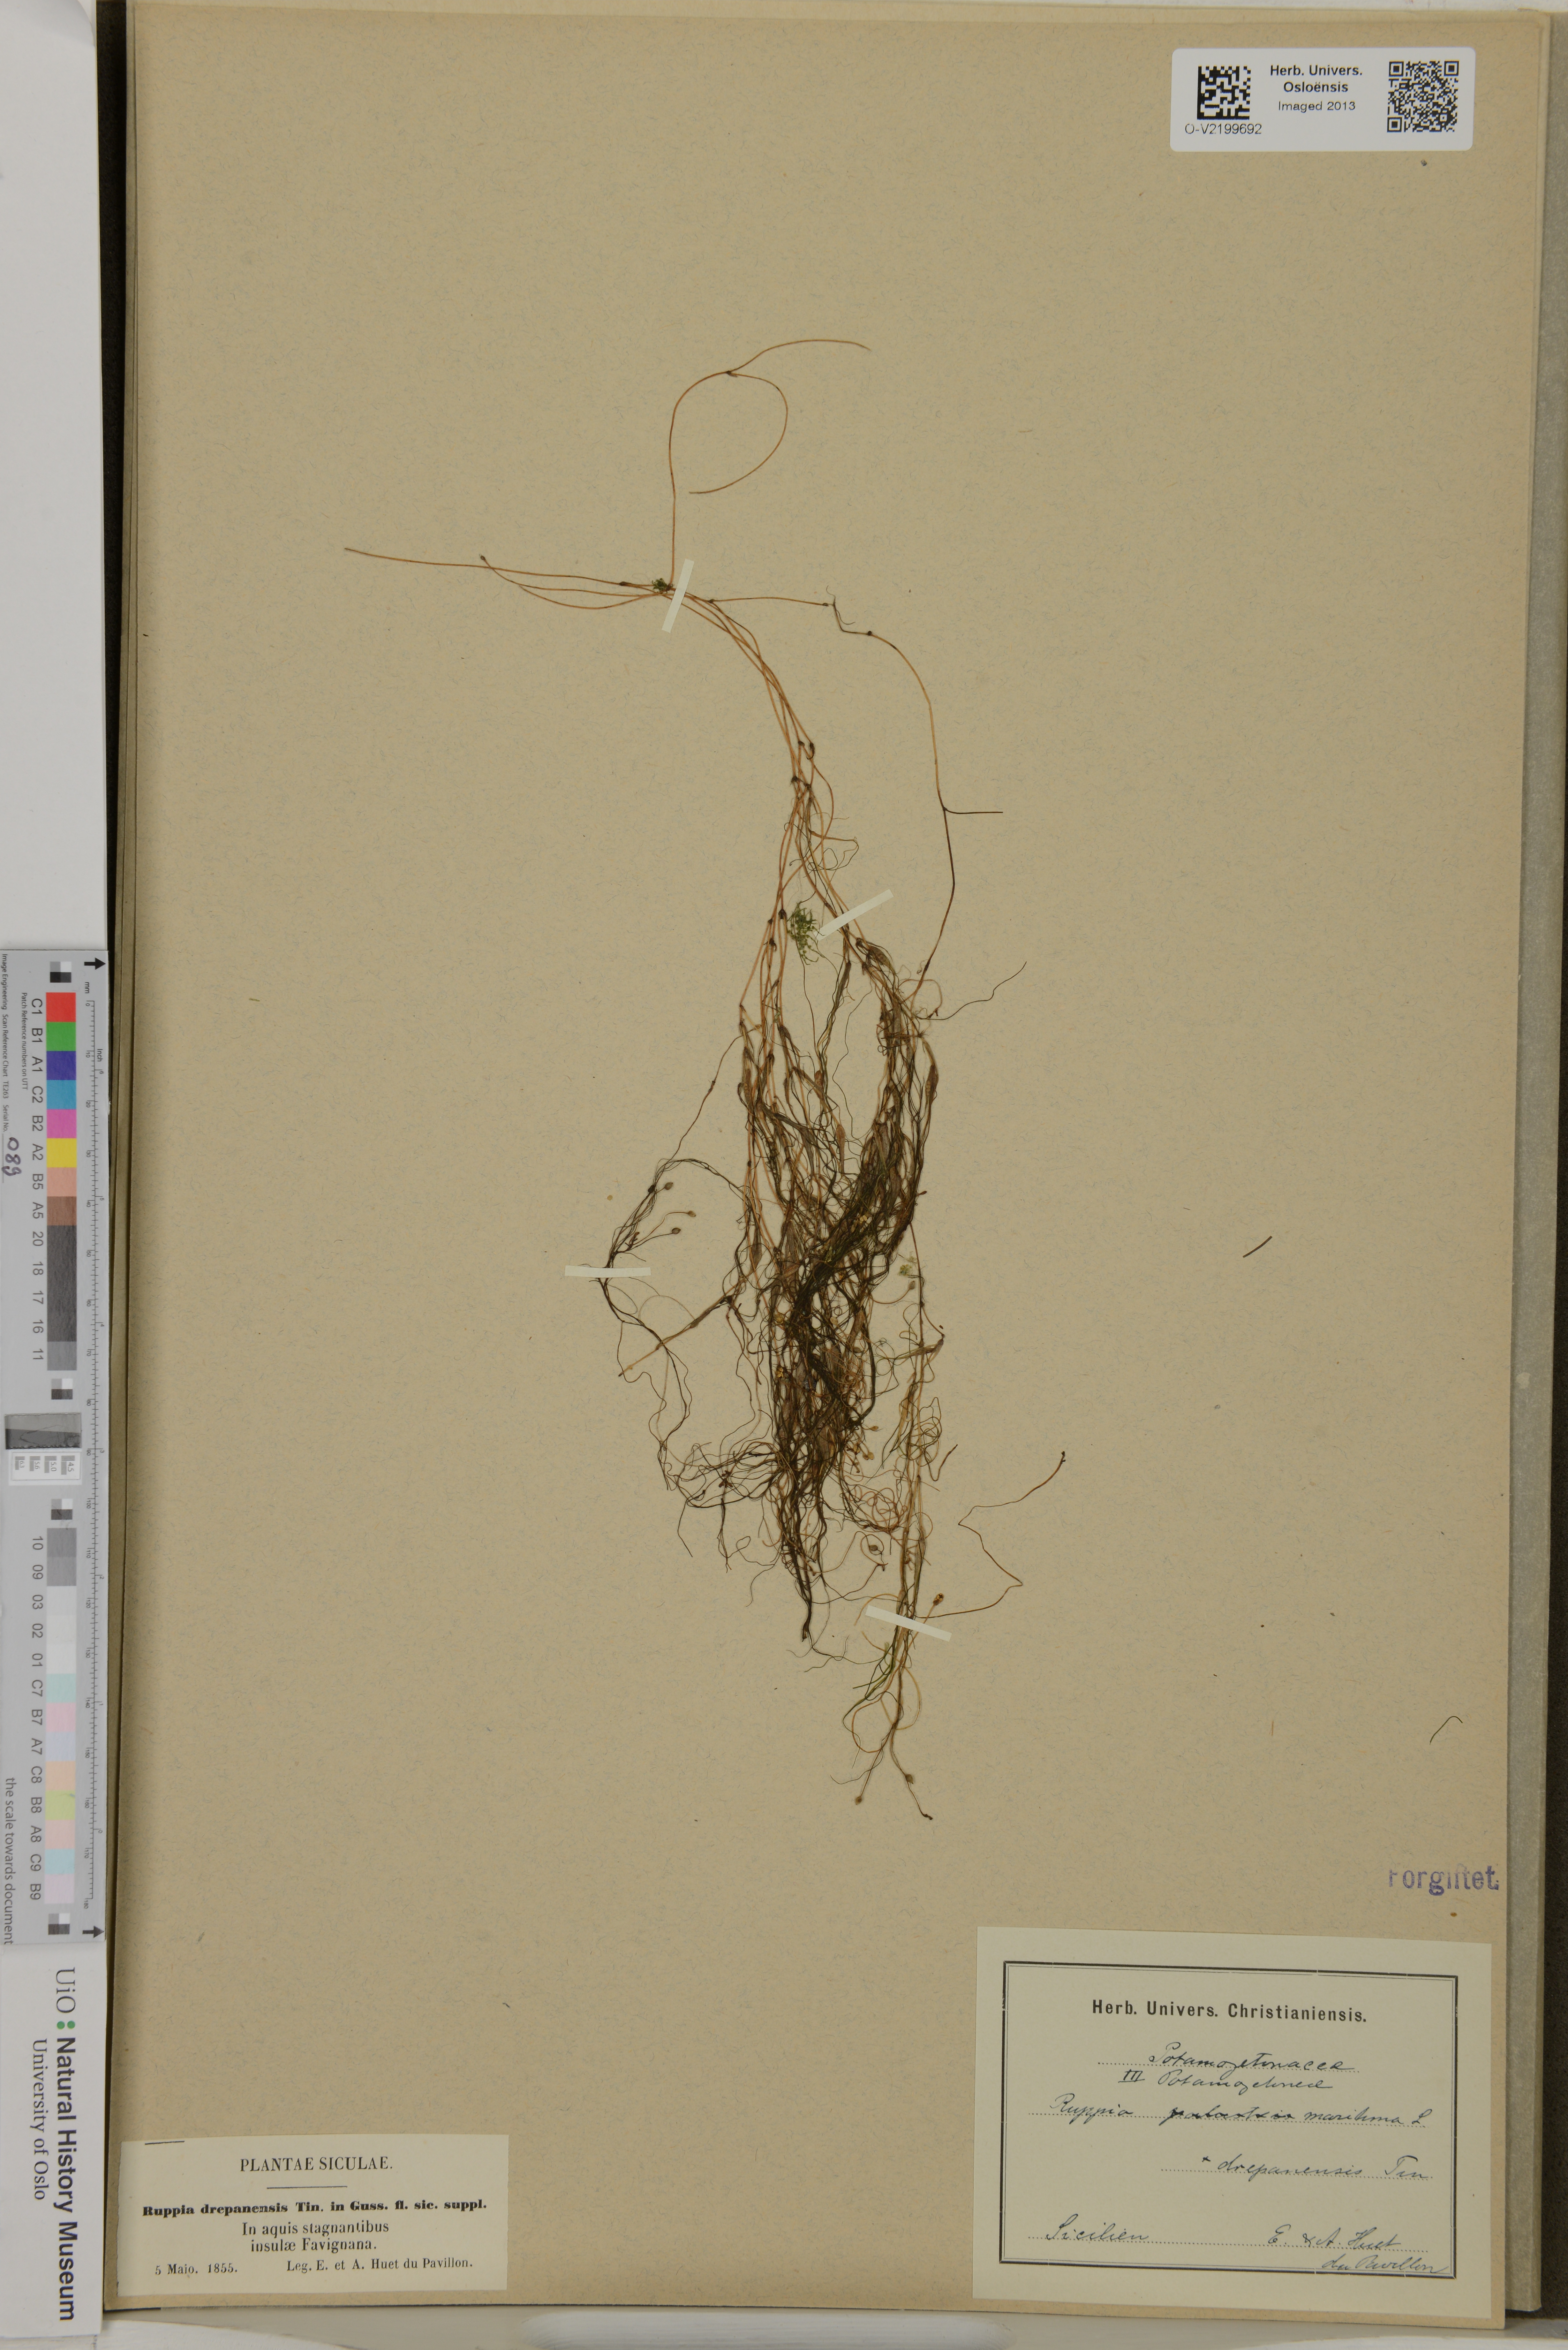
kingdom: Plantae
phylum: Tracheophyta
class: Liliopsida
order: Alismatales
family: Ruppiaceae
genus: Ruppia
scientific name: Ruppia drepanensis
